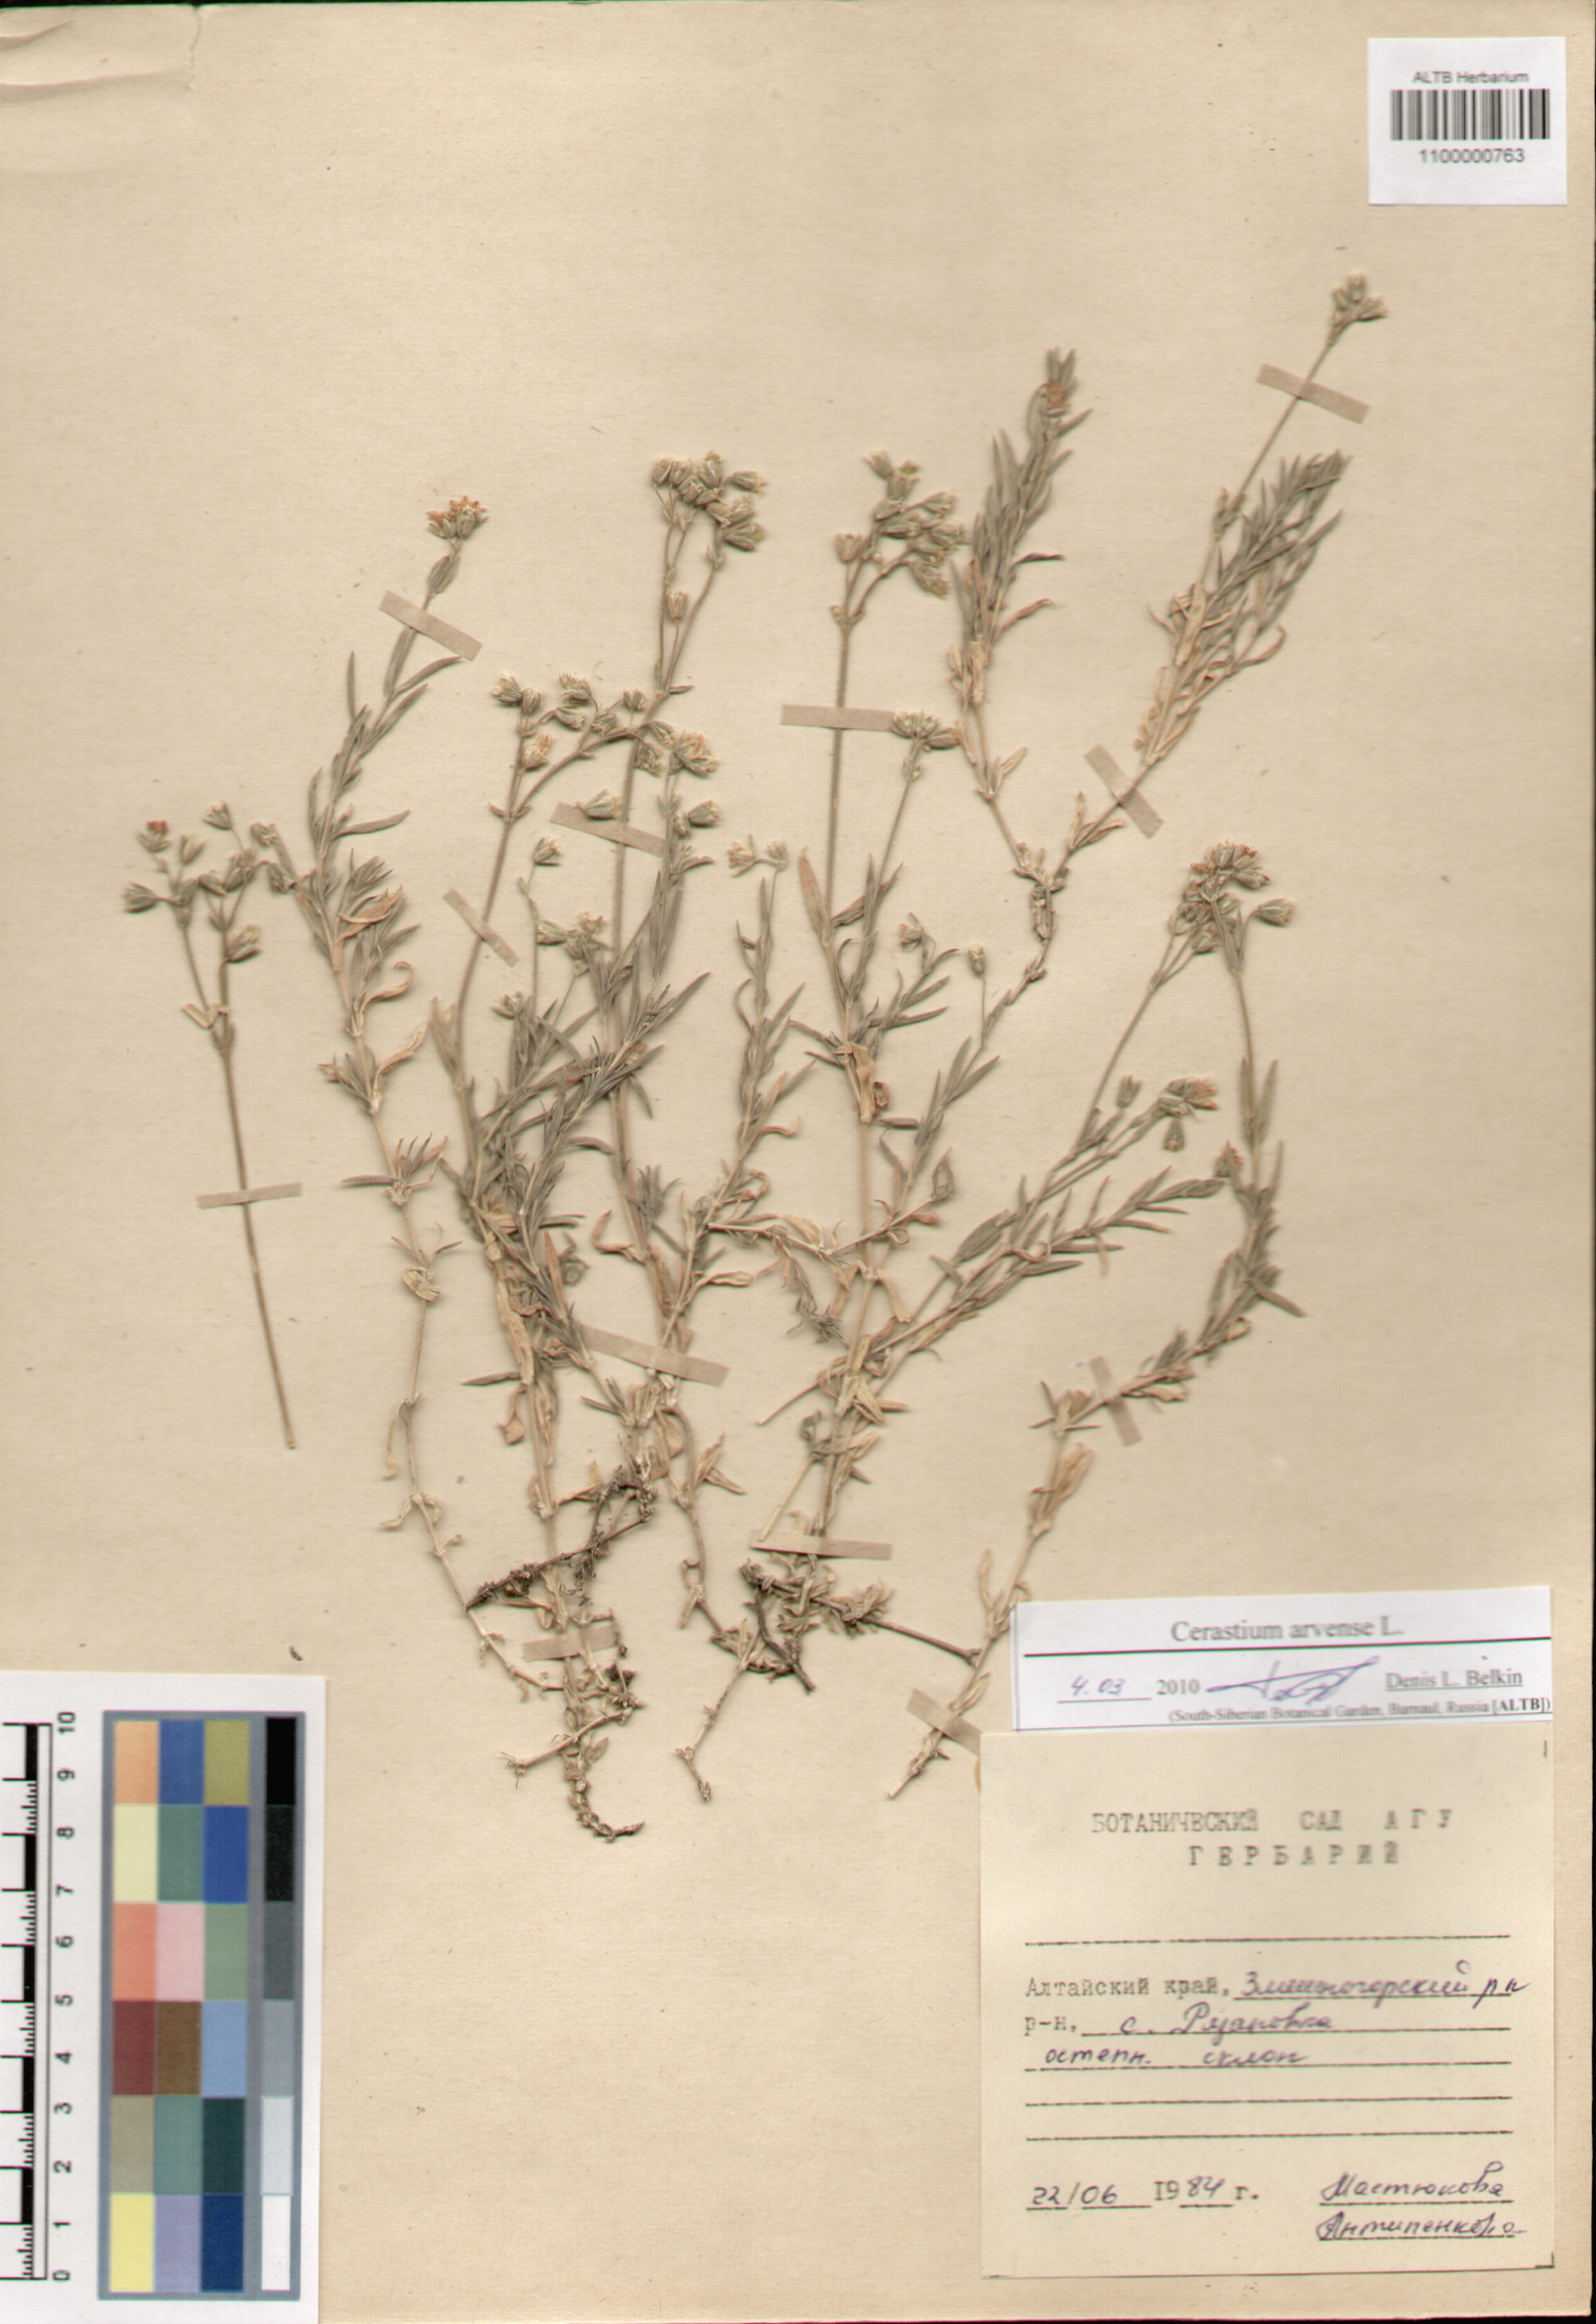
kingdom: Plantae
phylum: Tracheophyta
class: Magnoliopsida
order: Caryophyllales
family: Caryophyllaceae
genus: Cerastium
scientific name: Cerastium arvense
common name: Field mouse-ear
